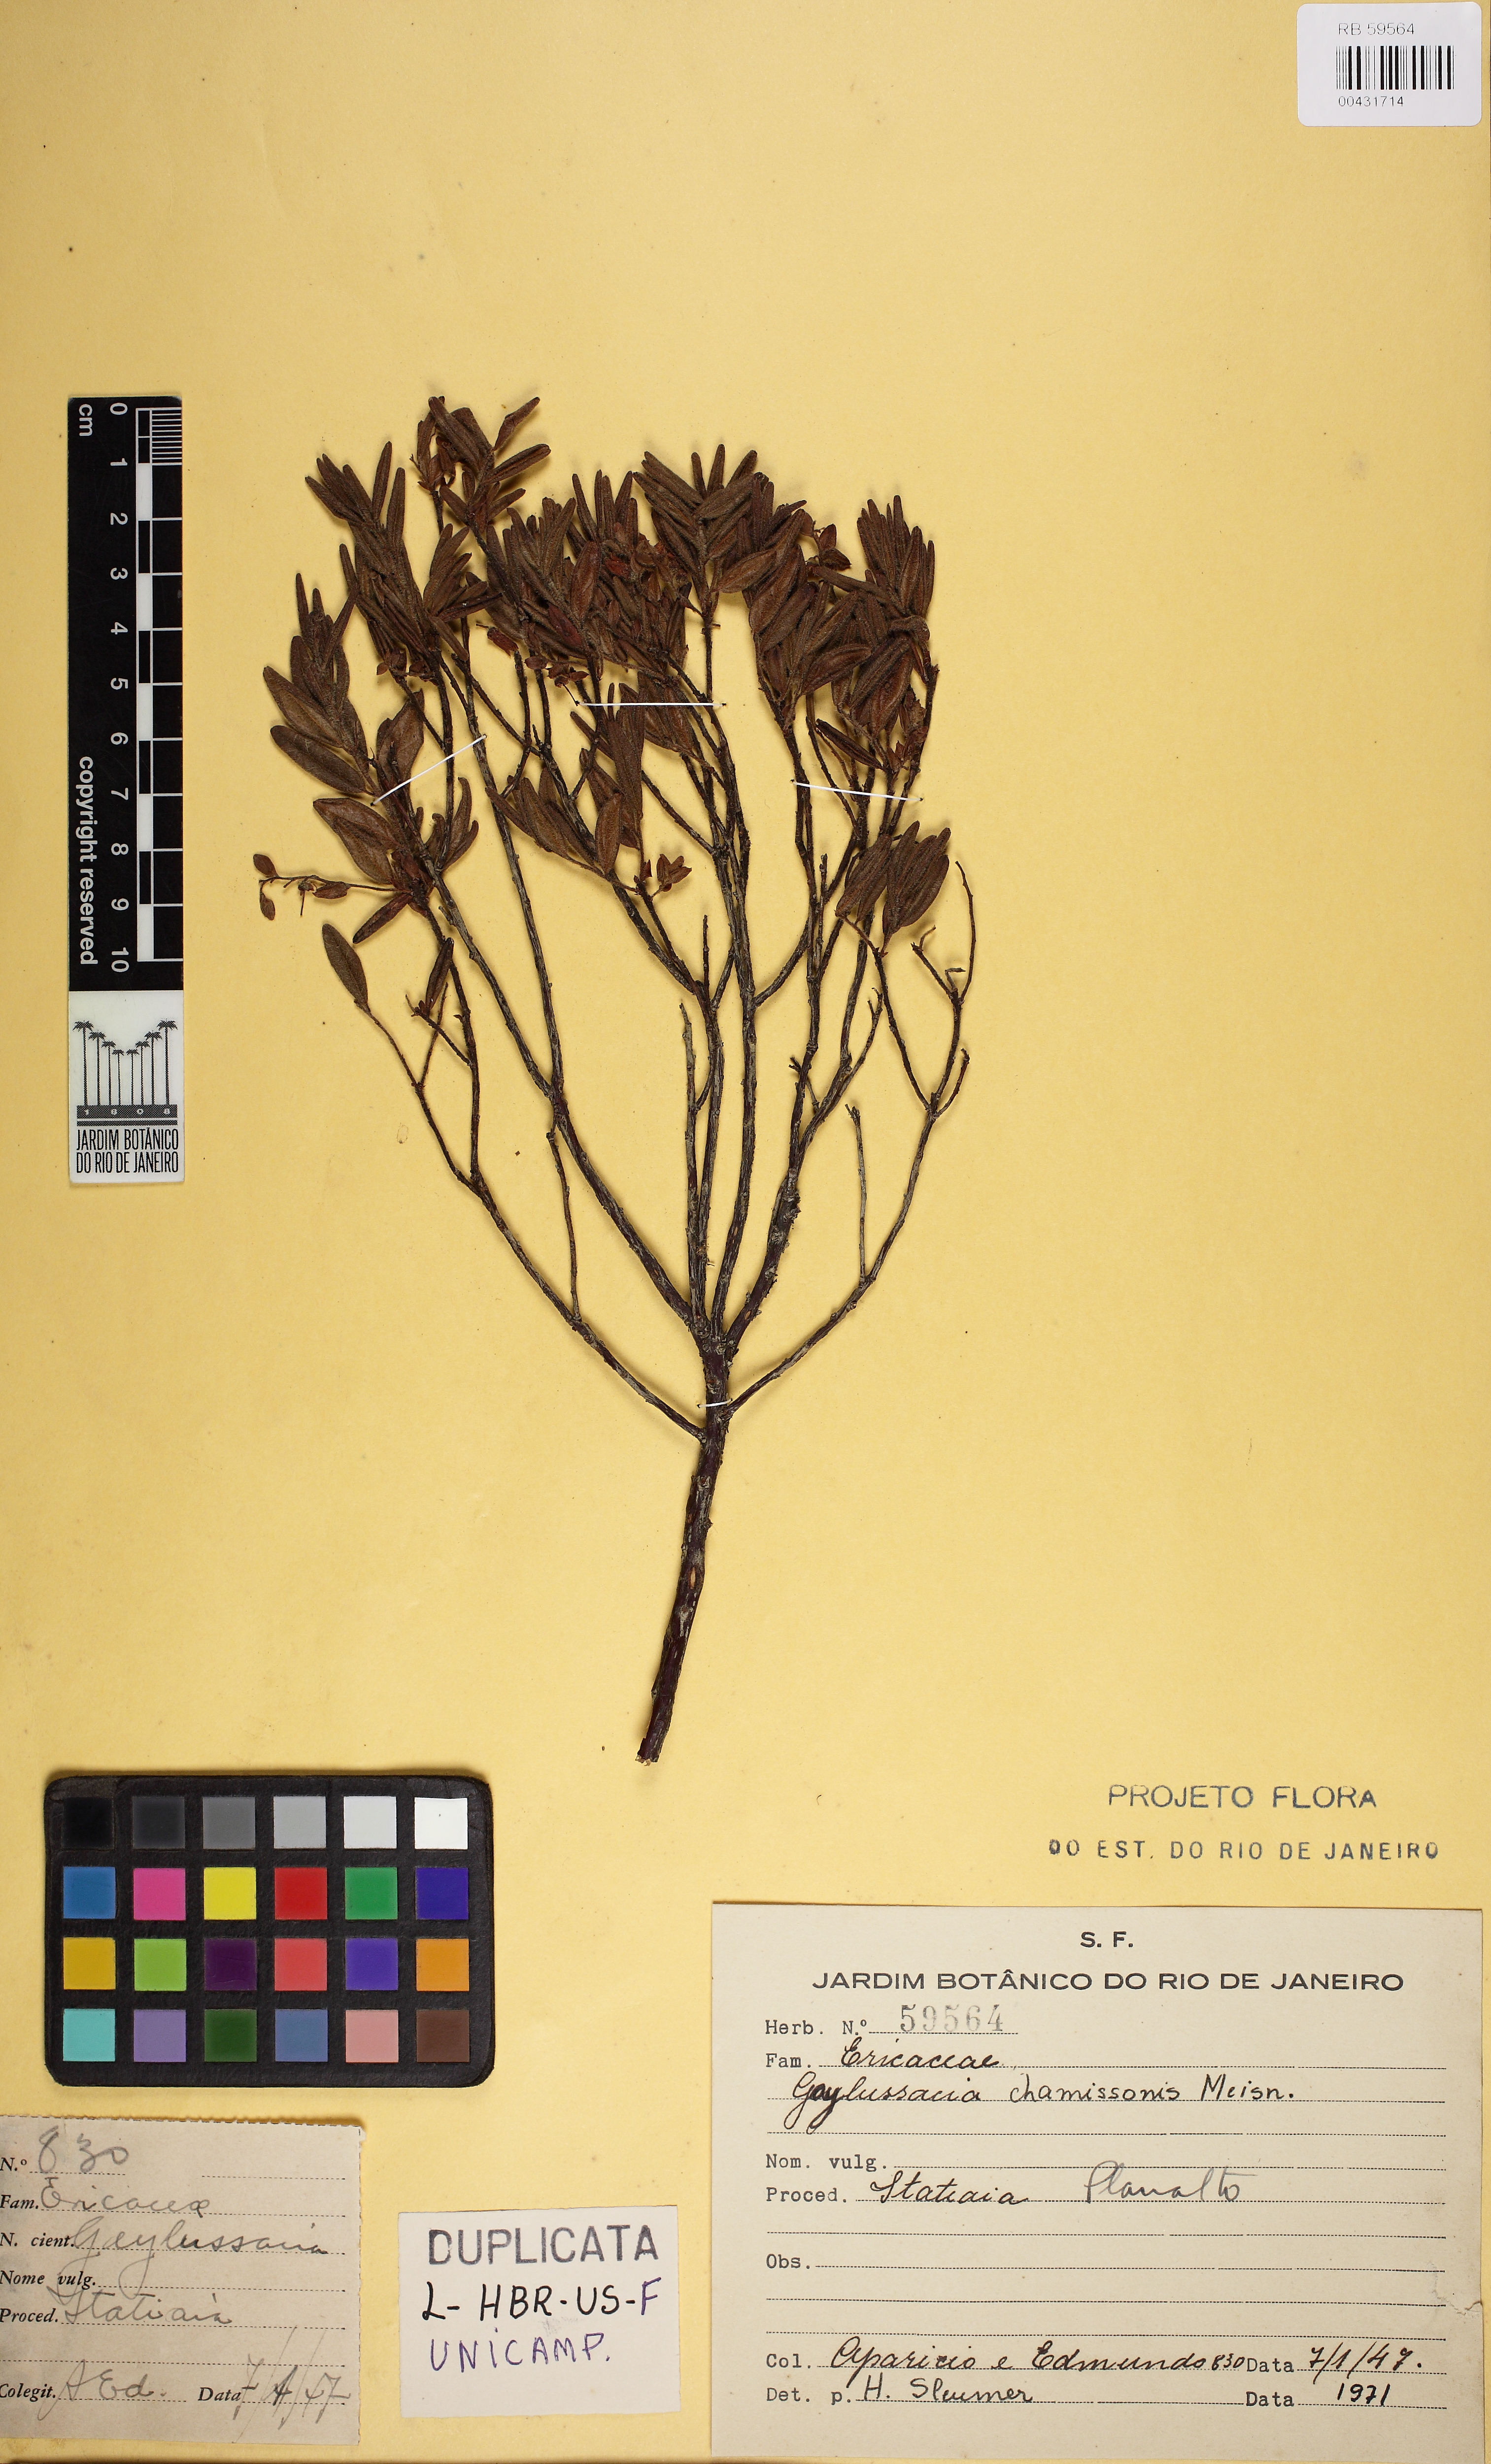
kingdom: Plantae
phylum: Tracheophyta
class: Magnoliopsida
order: Ericales
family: Ericaceae
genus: Gaylussacia
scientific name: Gaylussacia chamissonis
